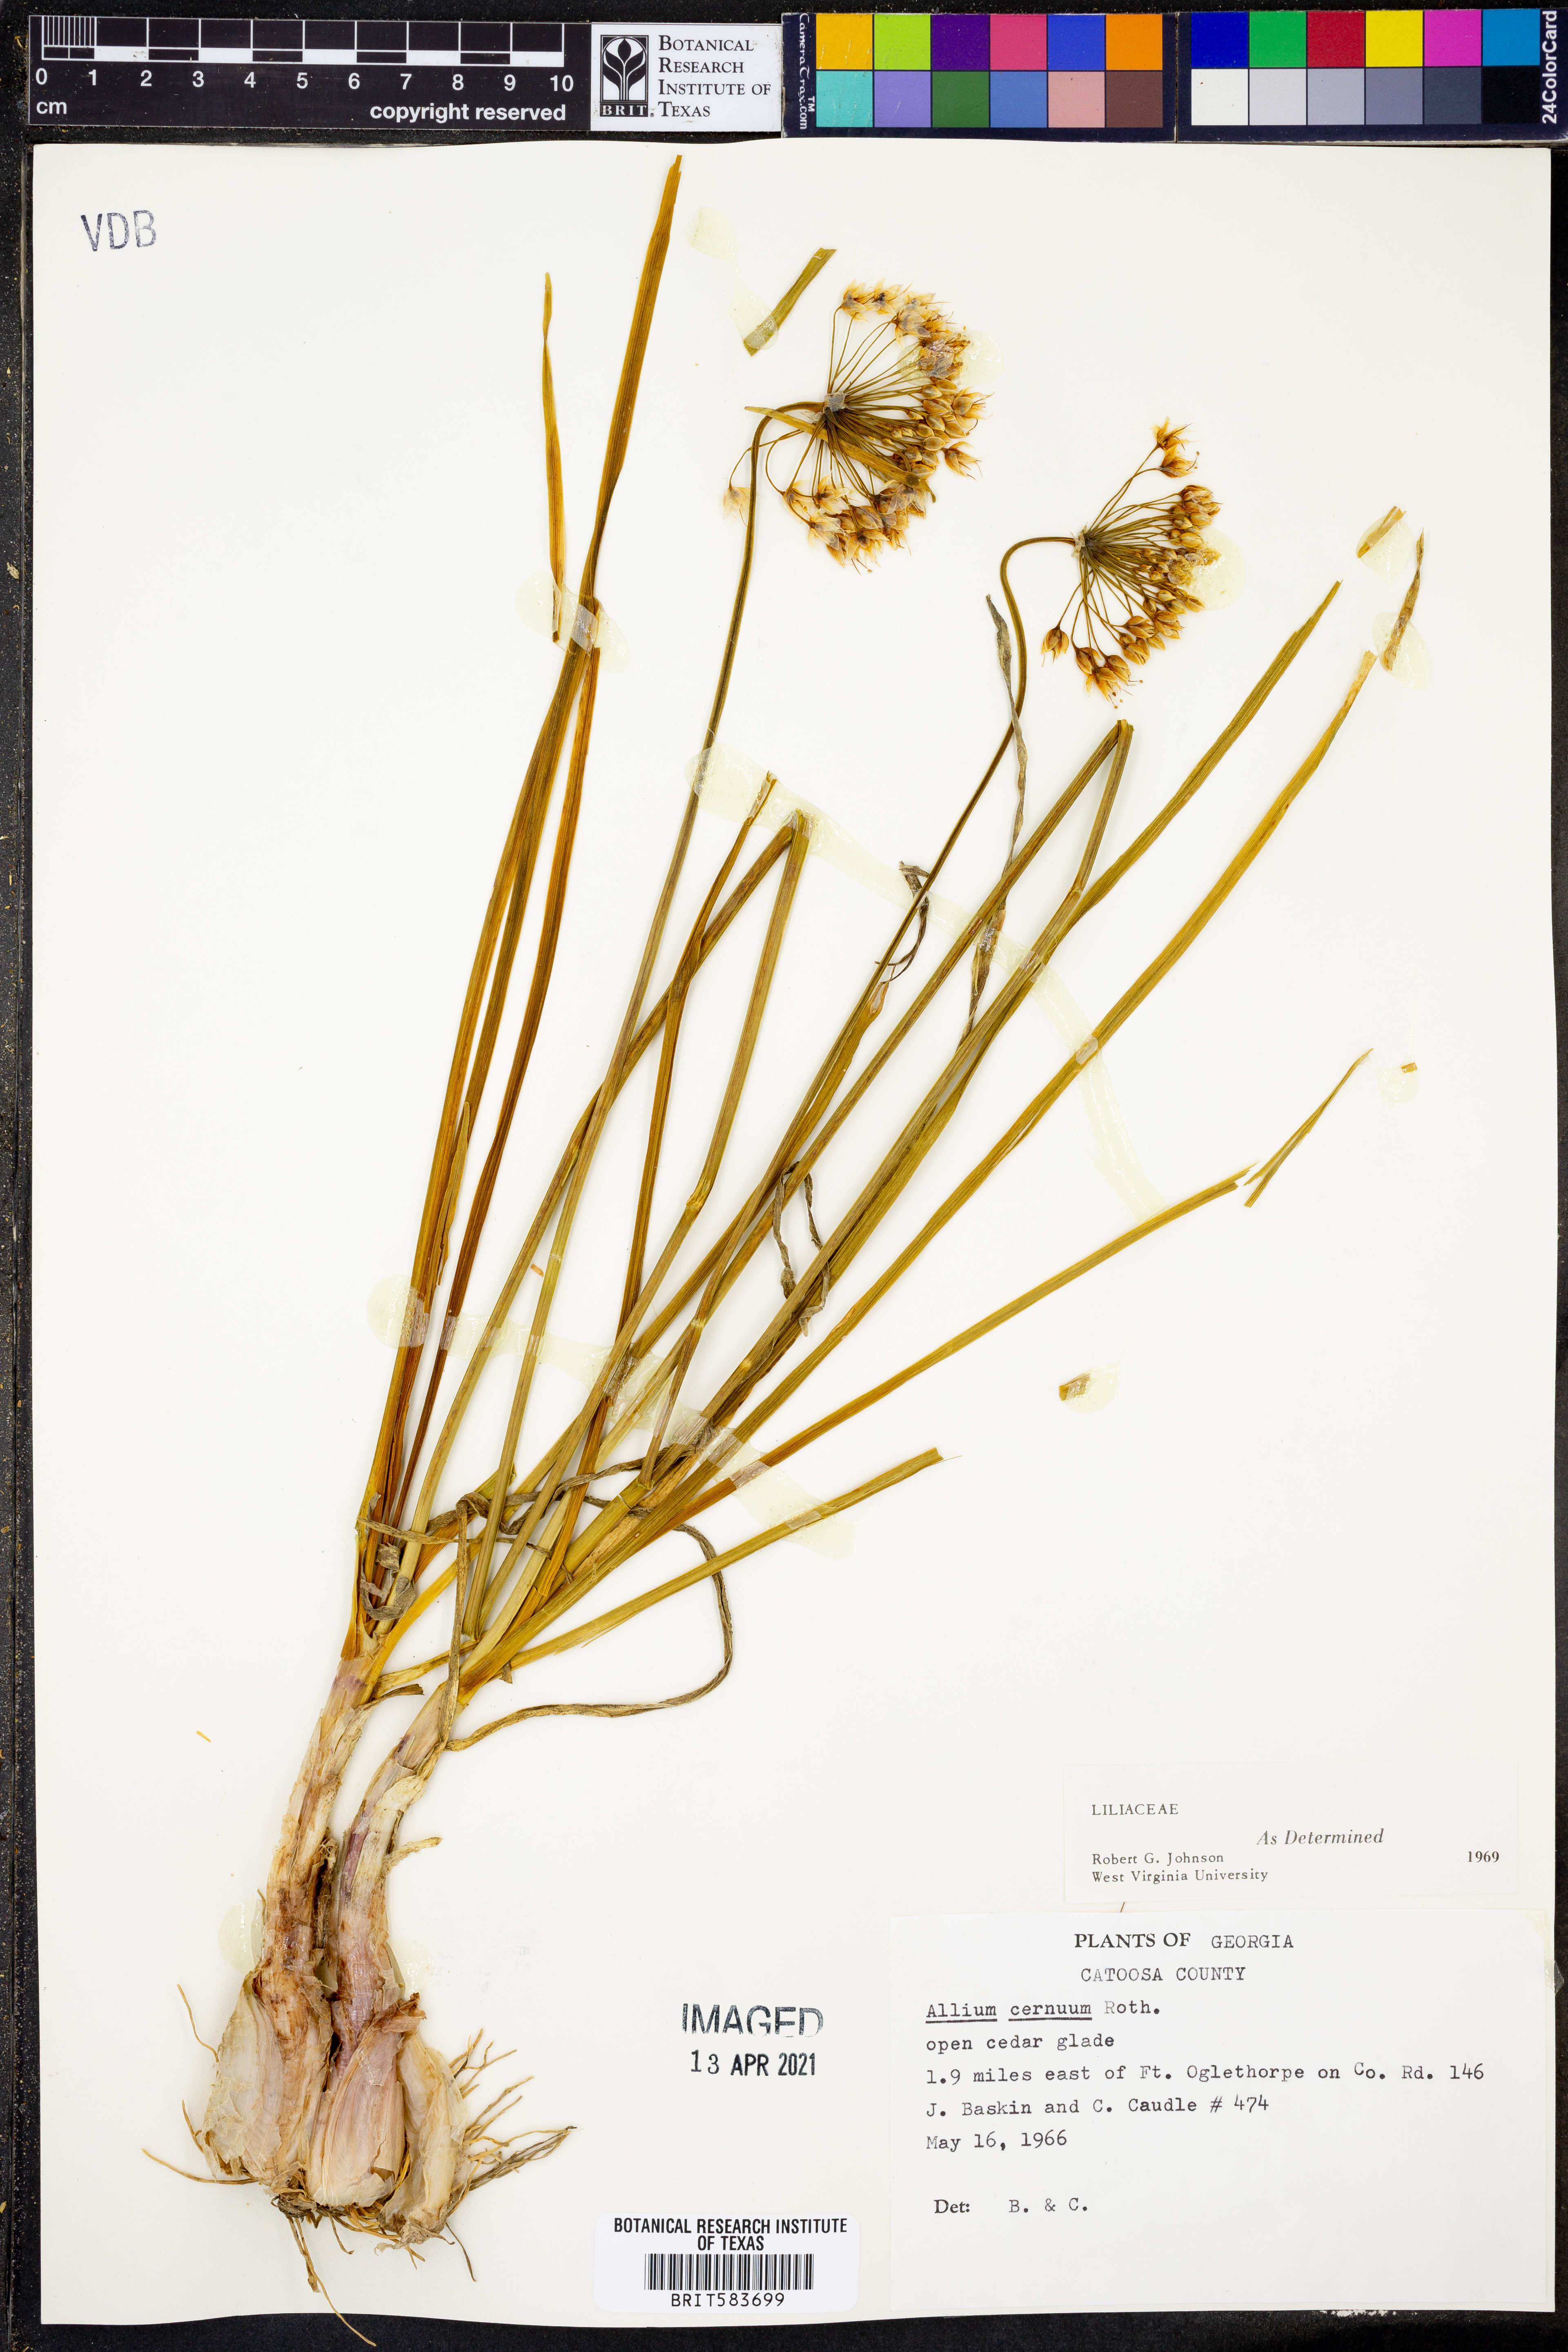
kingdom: Plantae
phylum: Tracheophyta
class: Liliopsida
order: Asparagales
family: Amaryllidaceae
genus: Allium
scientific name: Allium cernuum
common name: Nodding onion
